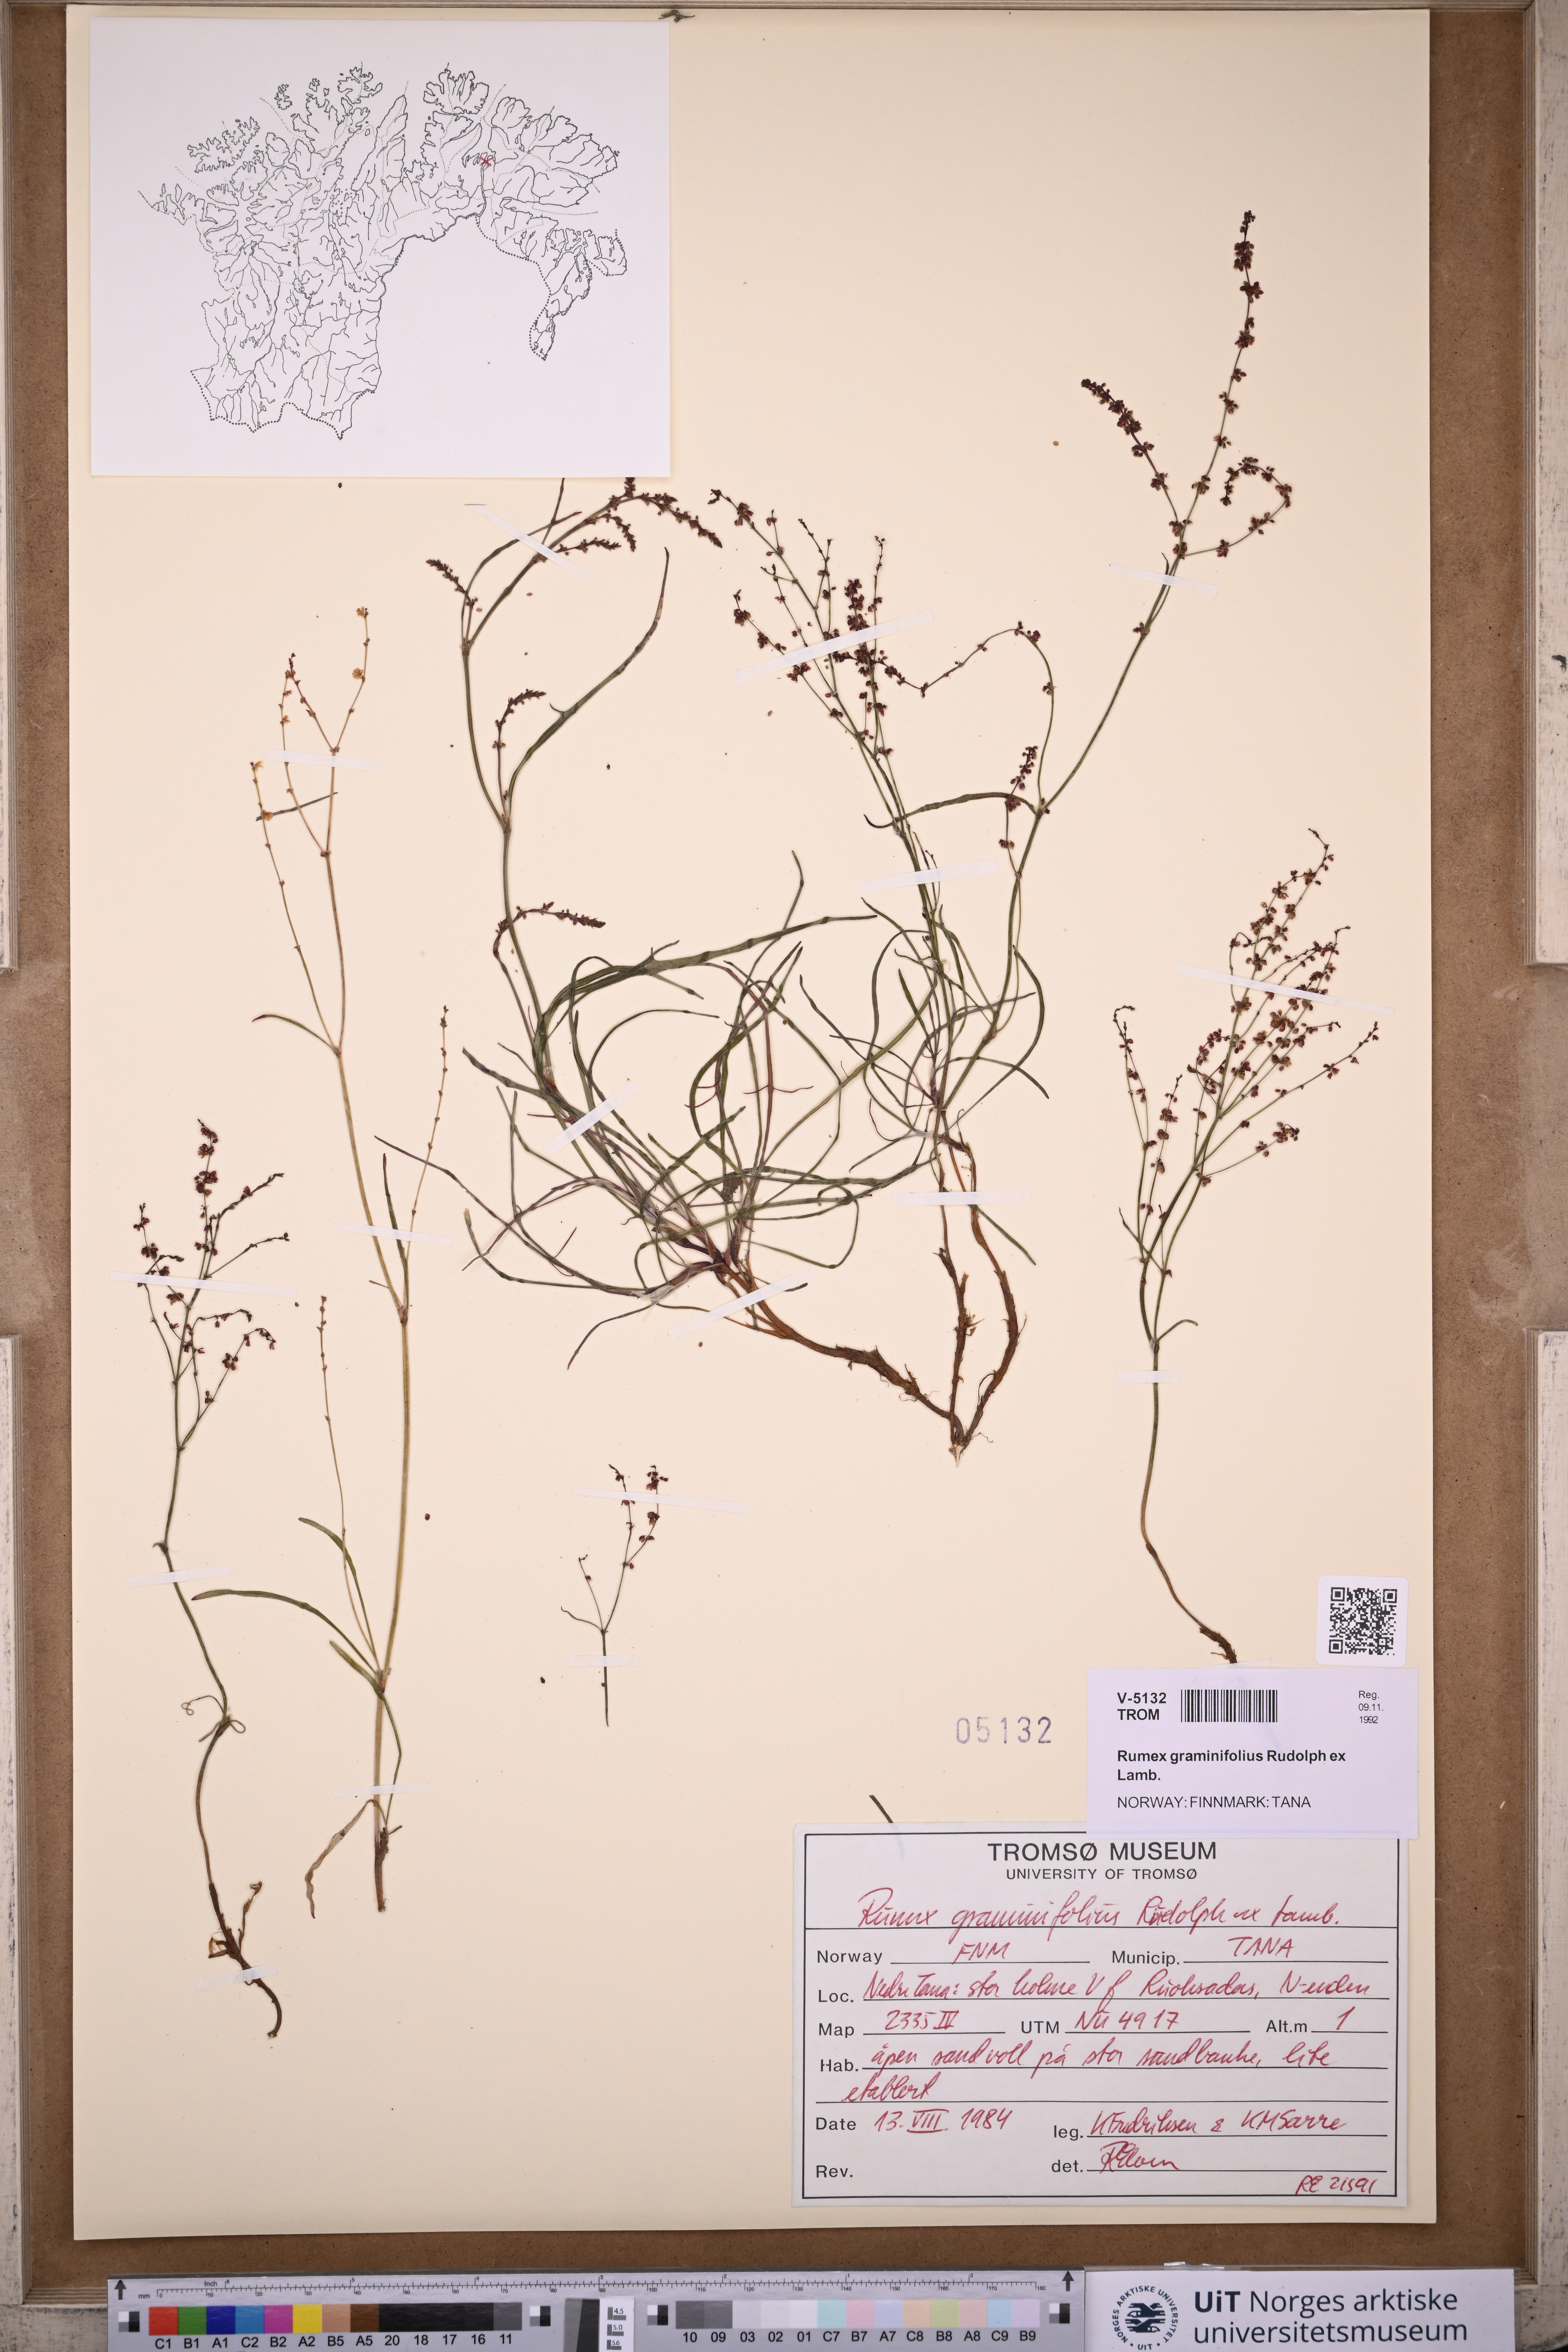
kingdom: Plantae
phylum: Tracheophyta
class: Magnoliopsida
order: Caryophyllales
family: Polygonaceae
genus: Rumex
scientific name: Rumex graminifolius
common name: Grass-leaved sorrel
